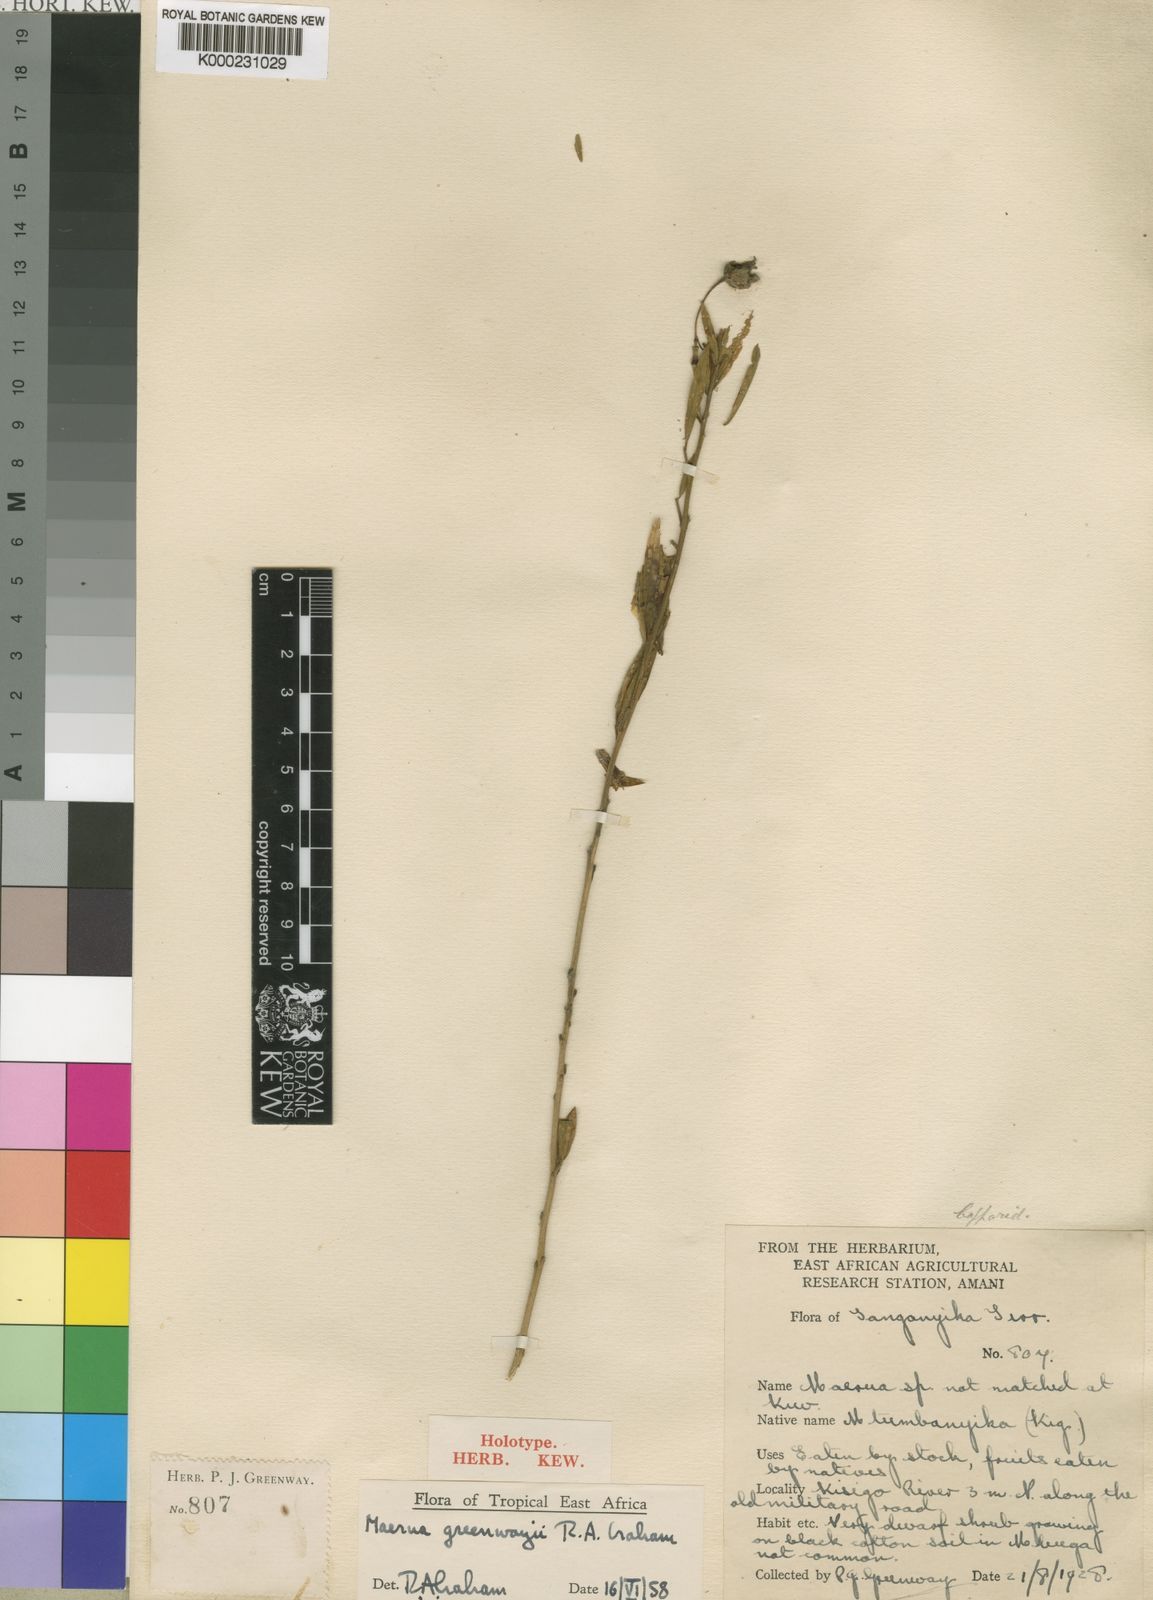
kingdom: Plantae
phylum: Tracheophyta
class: Magnoliopsida
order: Brassicales
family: Capparaceae
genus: Maerua
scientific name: Maerua
